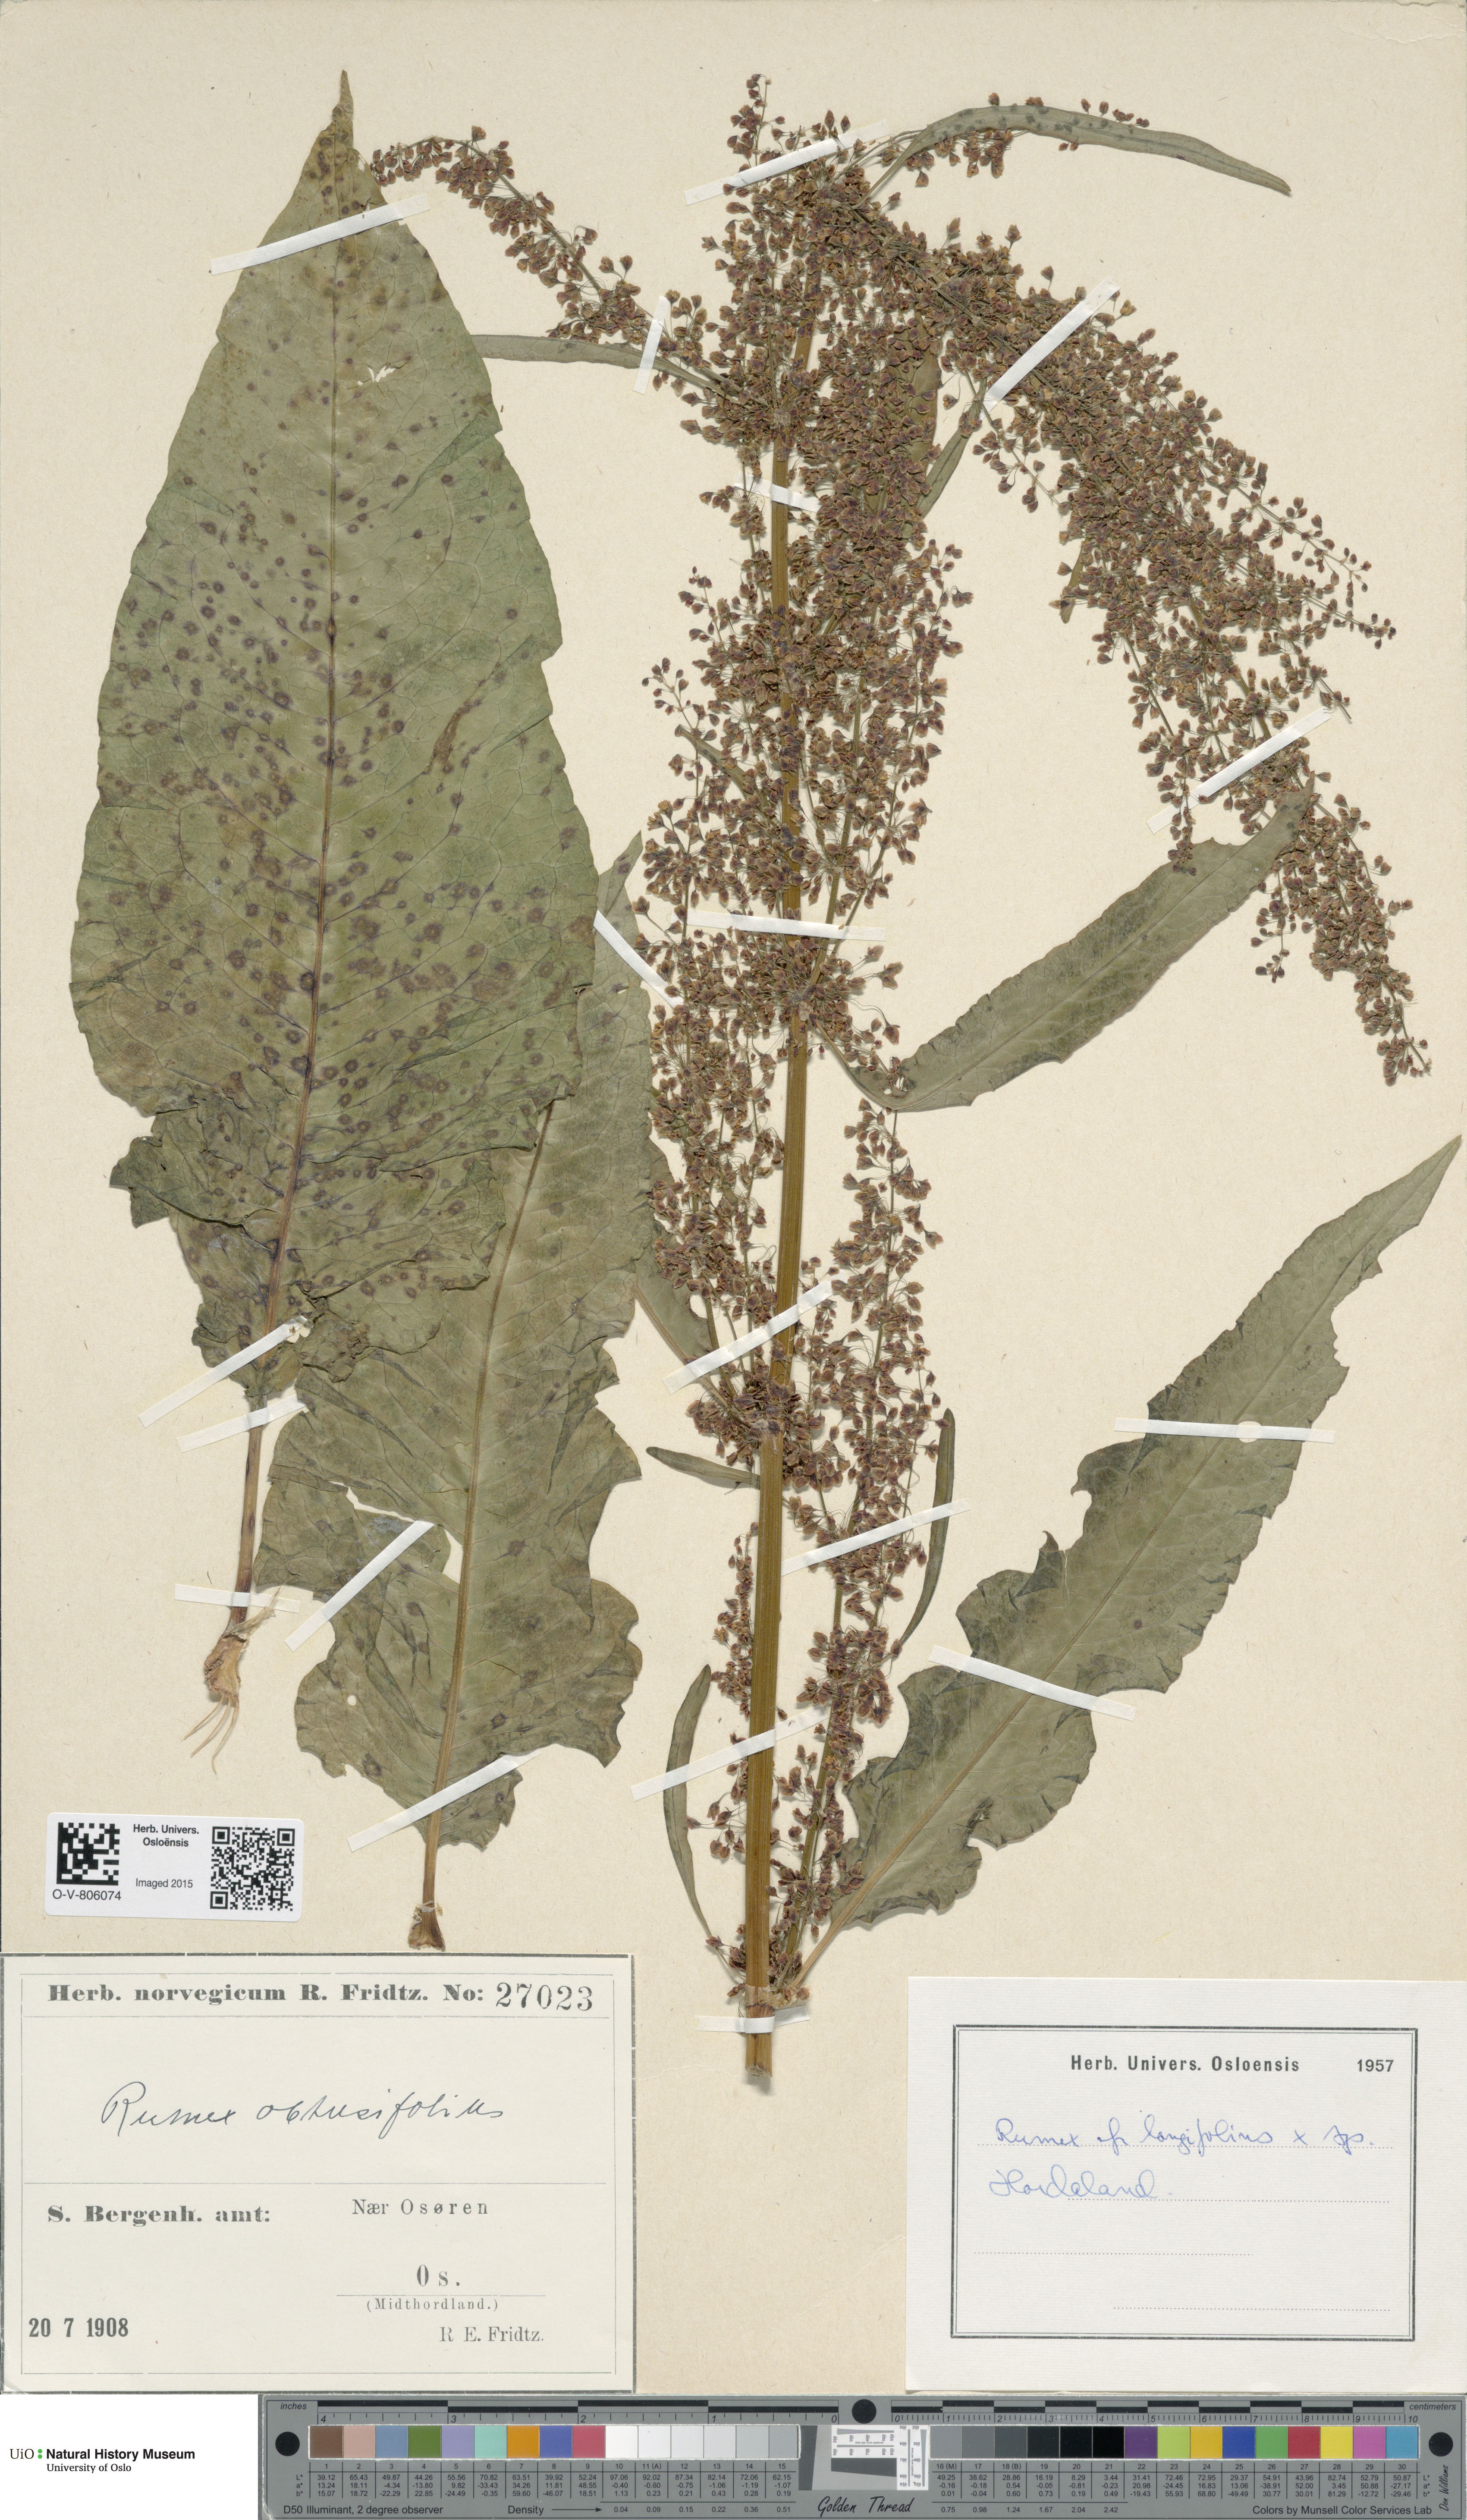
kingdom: Plantae
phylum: Tracheophyta
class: Magnoliopsida
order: Caryophyllales
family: Polygonaceae
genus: Rumex
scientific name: Rumex obtusifolius
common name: Bitter dock
